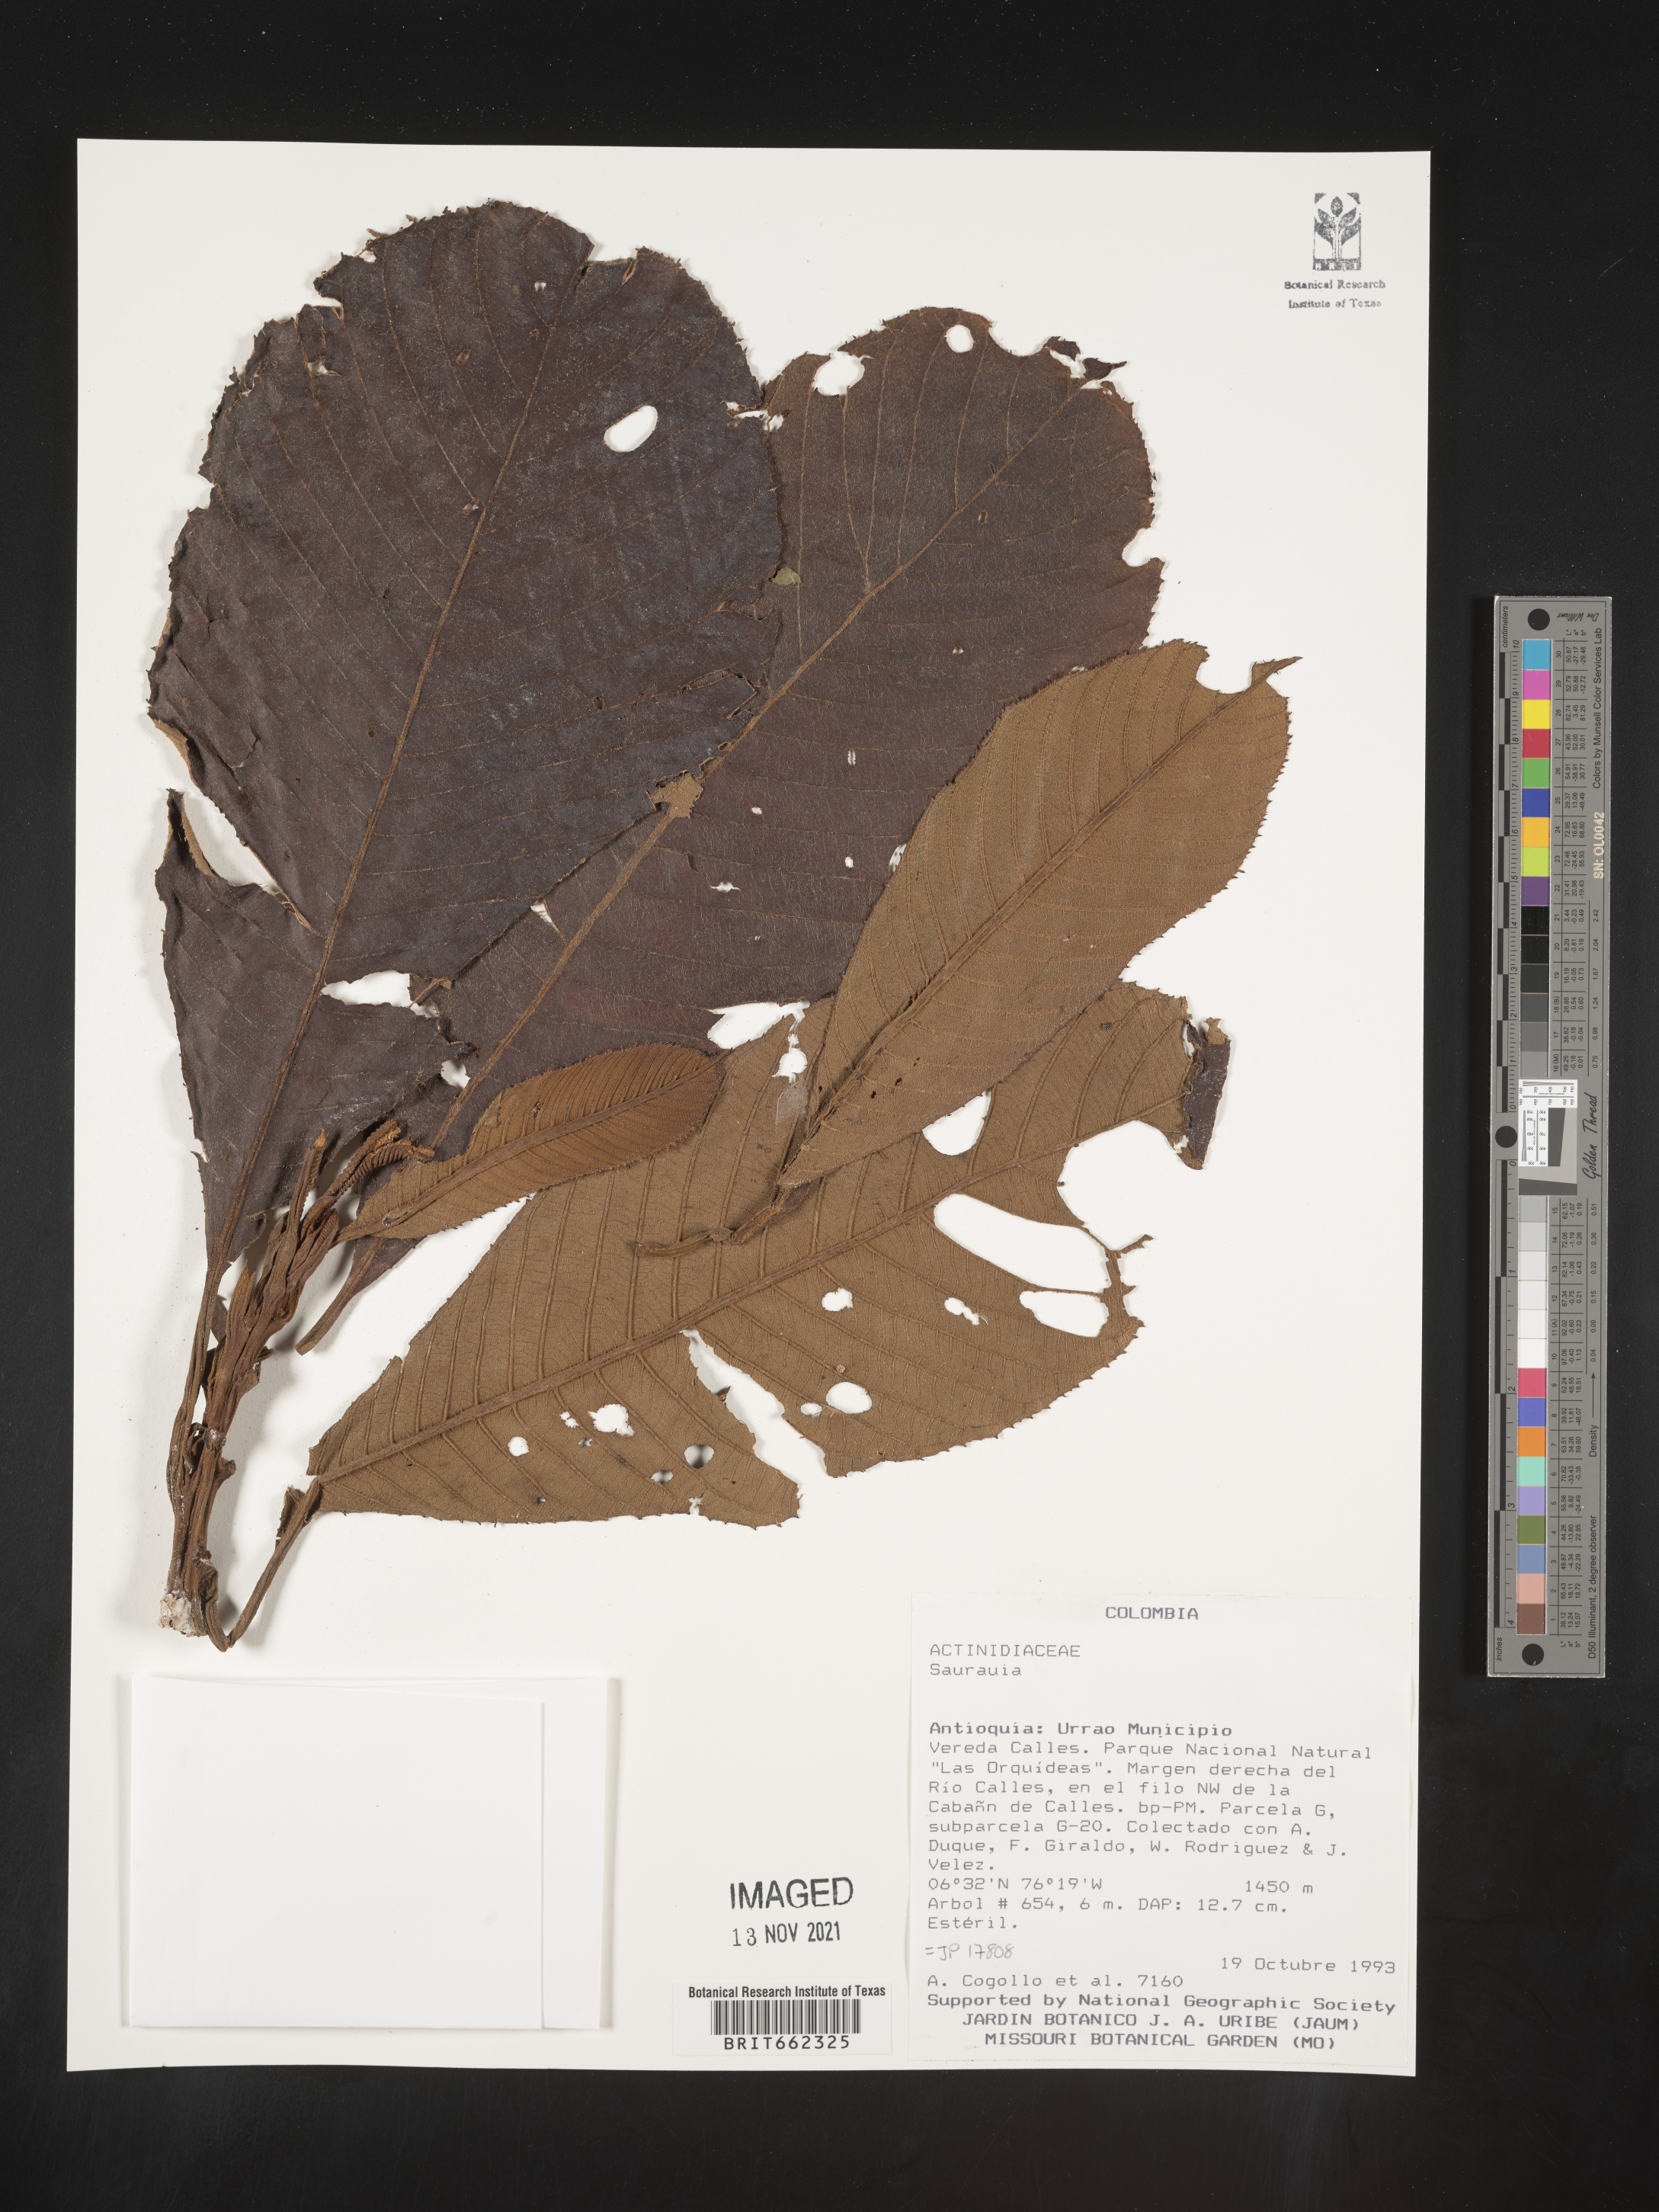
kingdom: Plantae
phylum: Tracheophyta
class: Magnoliopsida
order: Ericales
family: Actinidiaceae
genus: Saurauia
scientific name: Saurauia
